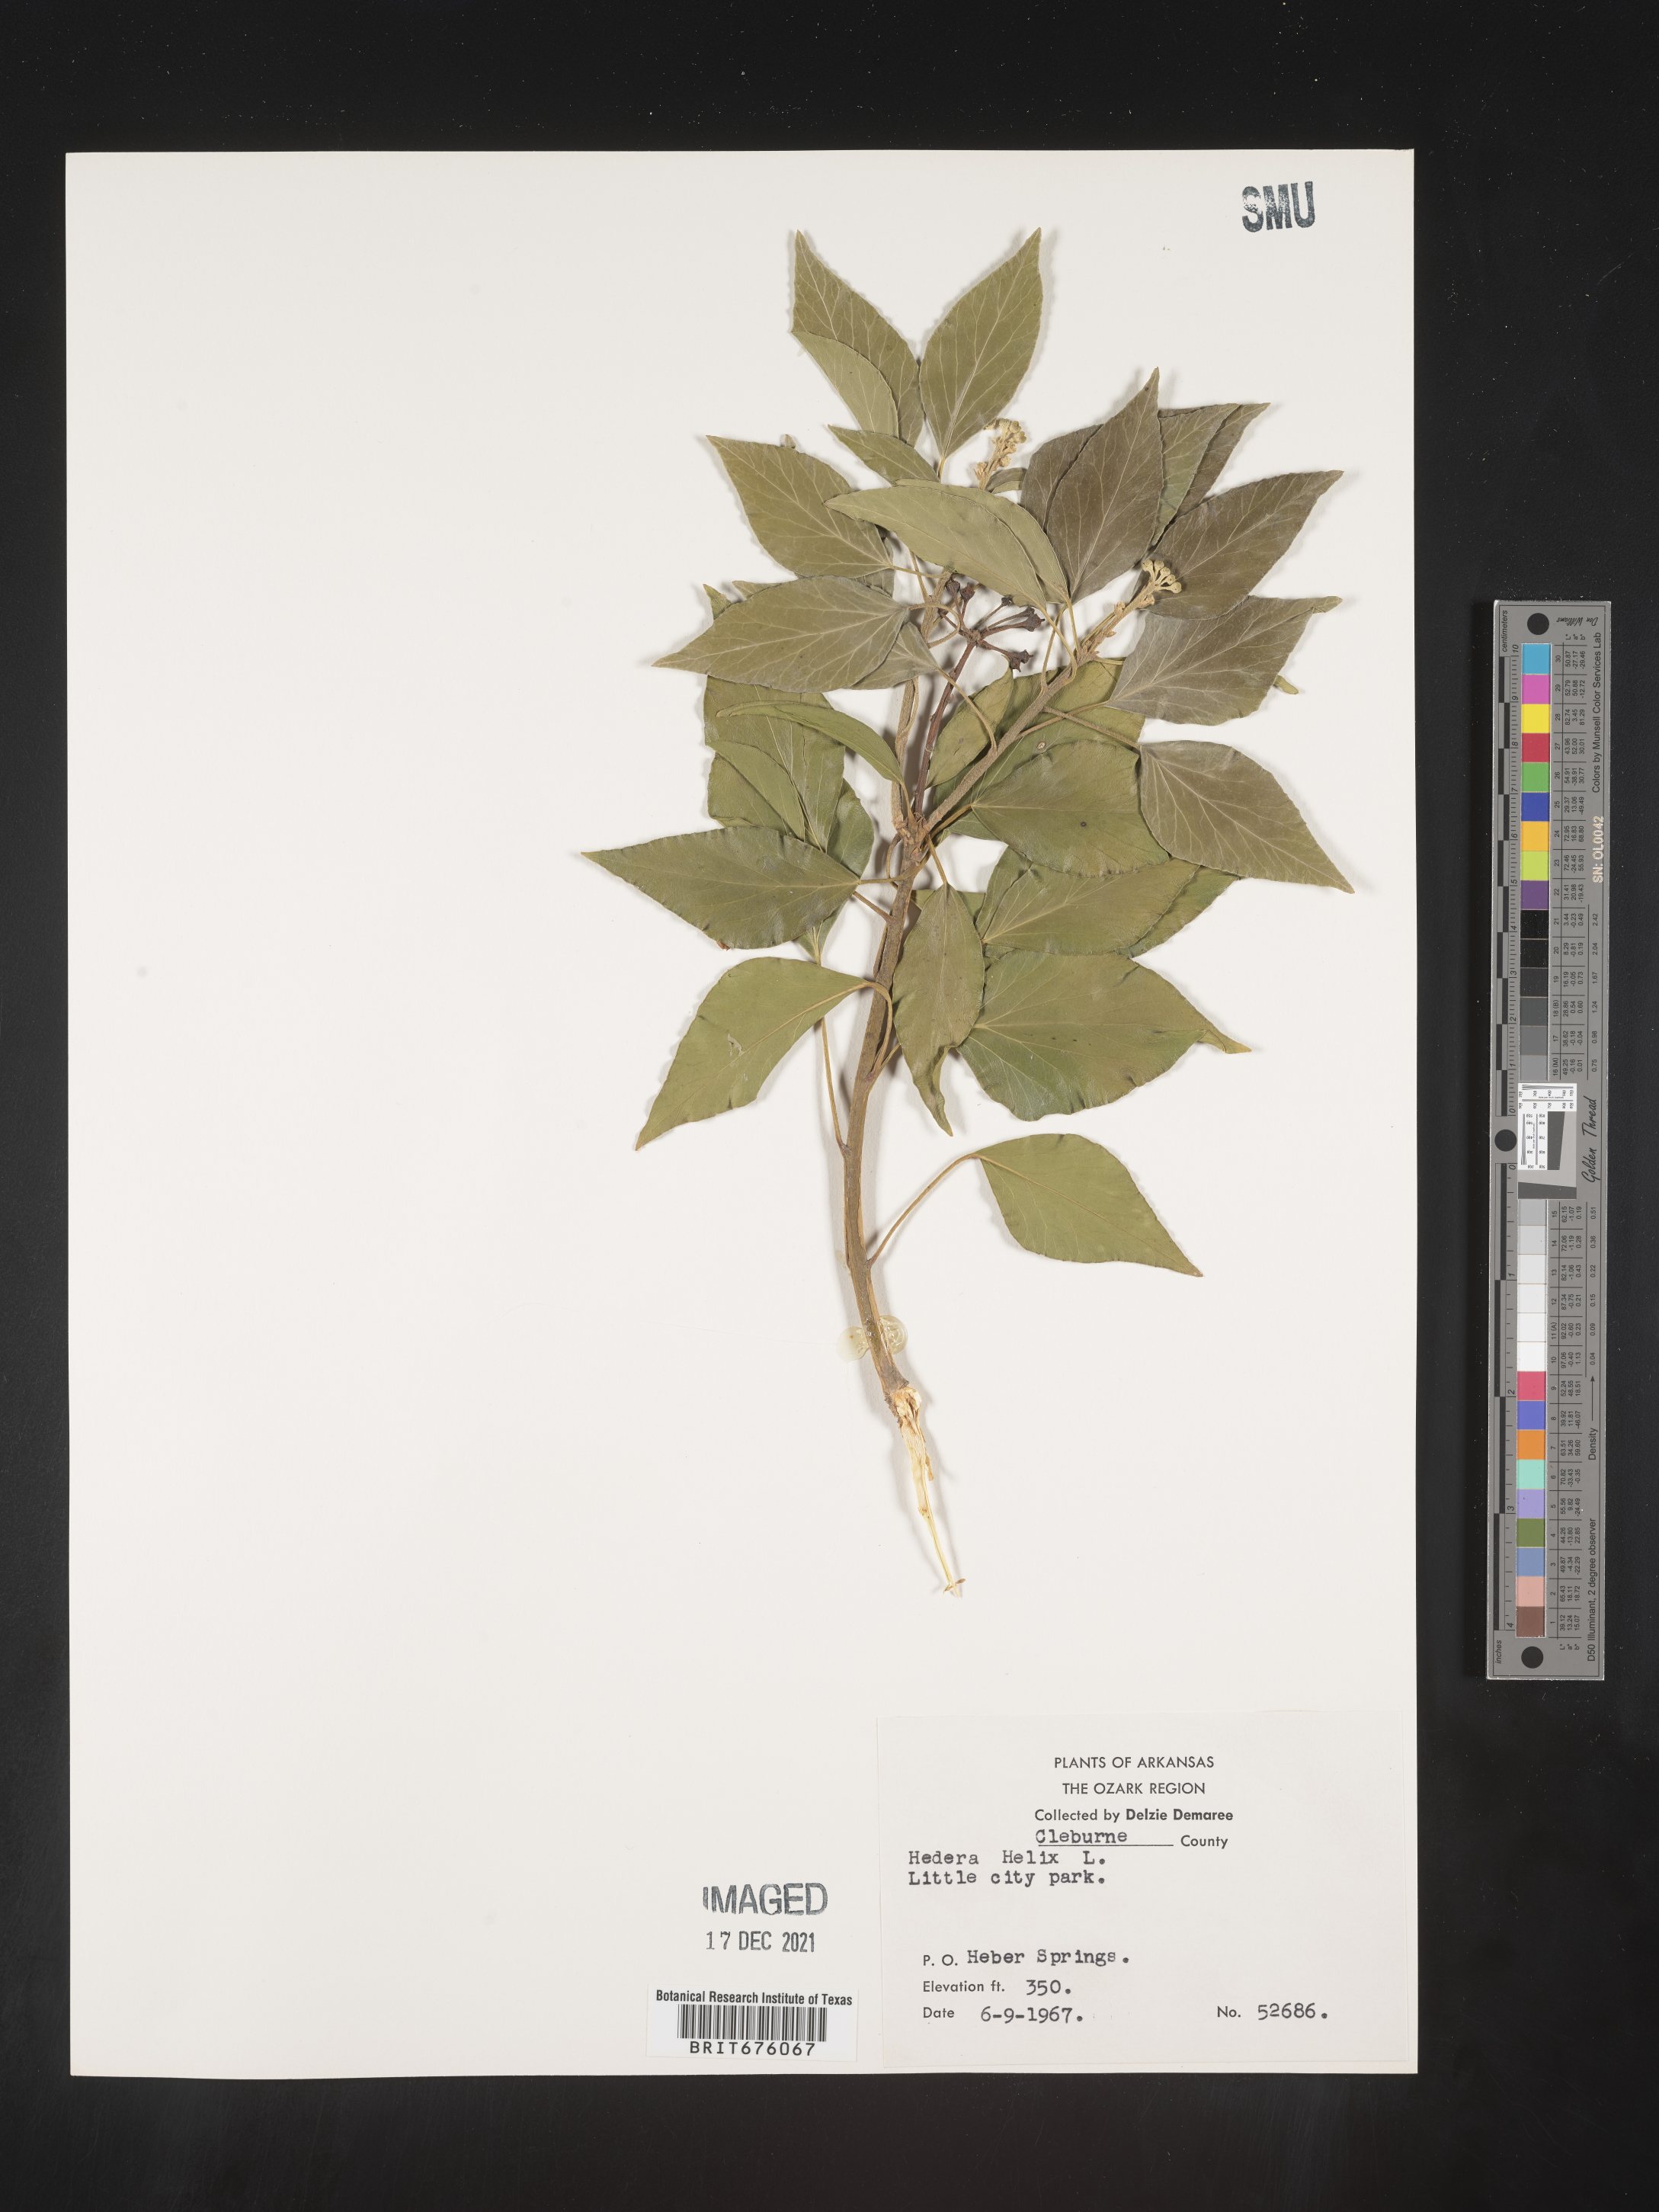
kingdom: Plantae
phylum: Tracheophyta
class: Magnoliopsida
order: Apiales
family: Araliaceae
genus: Hedera
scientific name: Hedera
